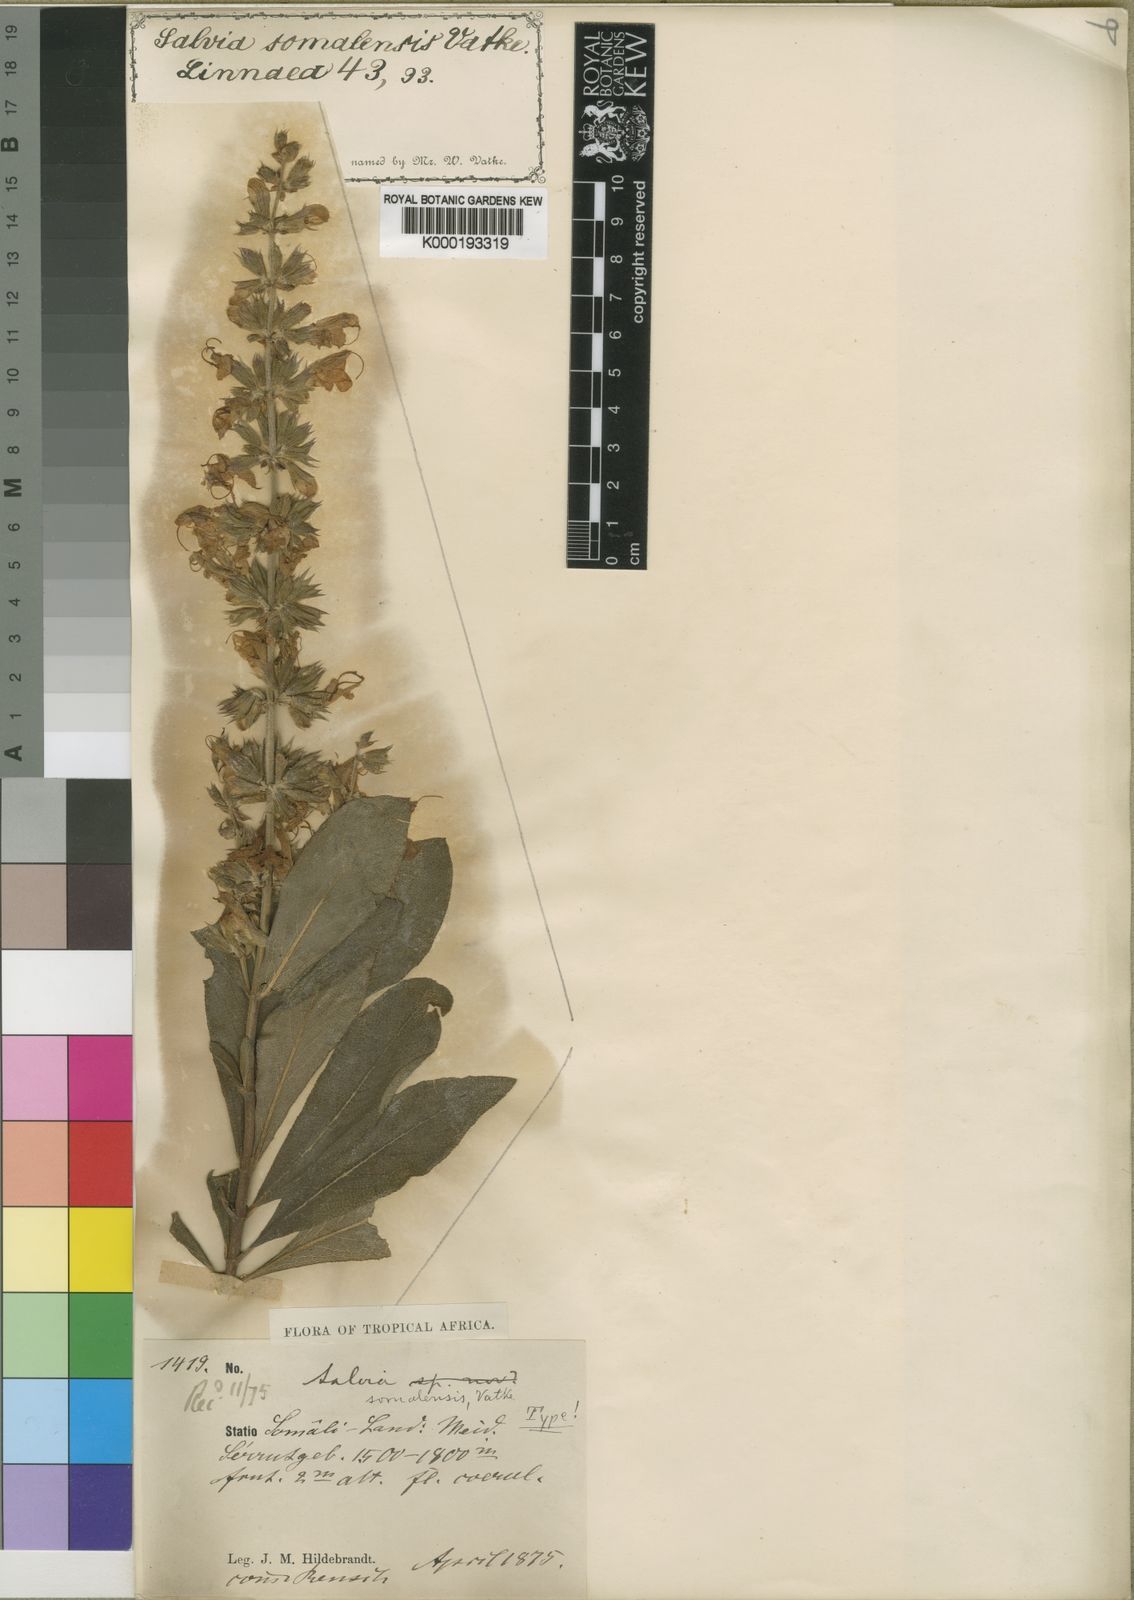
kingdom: Plantae
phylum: Tracheophyta
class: Magnoliopsida
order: Lamiales
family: Lamiaceae
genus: Salvia
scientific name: Salvia somalensis
